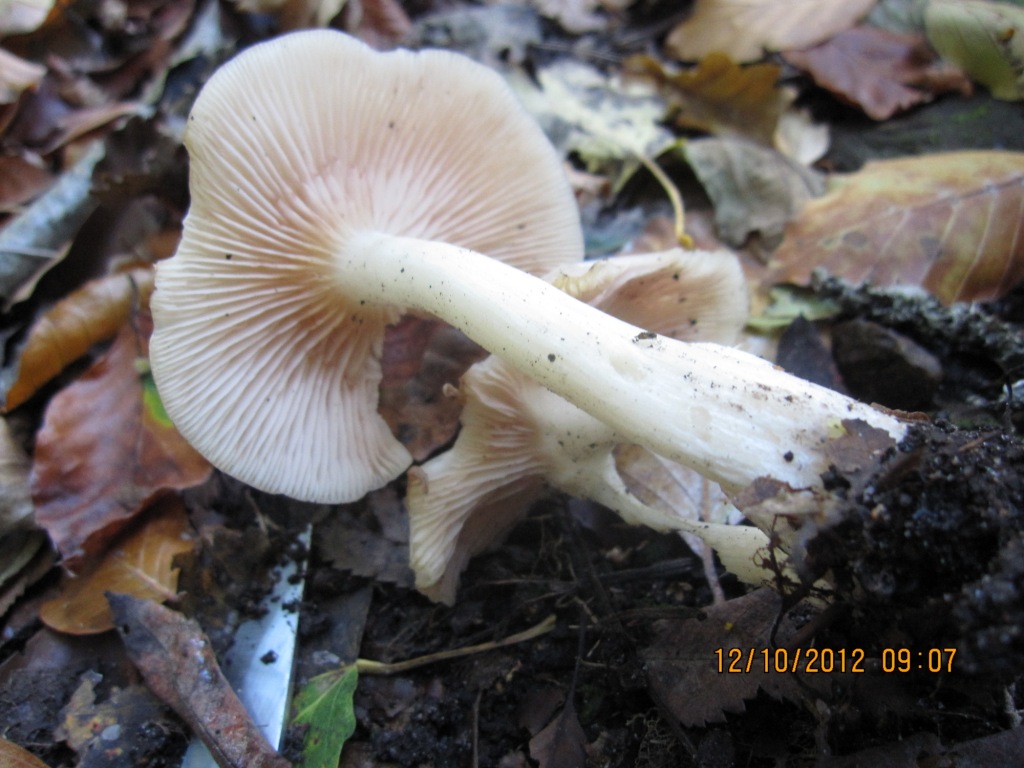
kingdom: Fungi
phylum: Basidiomycota
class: Agaricomycetes
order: Agaricales
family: Entolomataceae
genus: Entoloma
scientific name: Entoloma rhodopolium
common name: skov-rødblad
